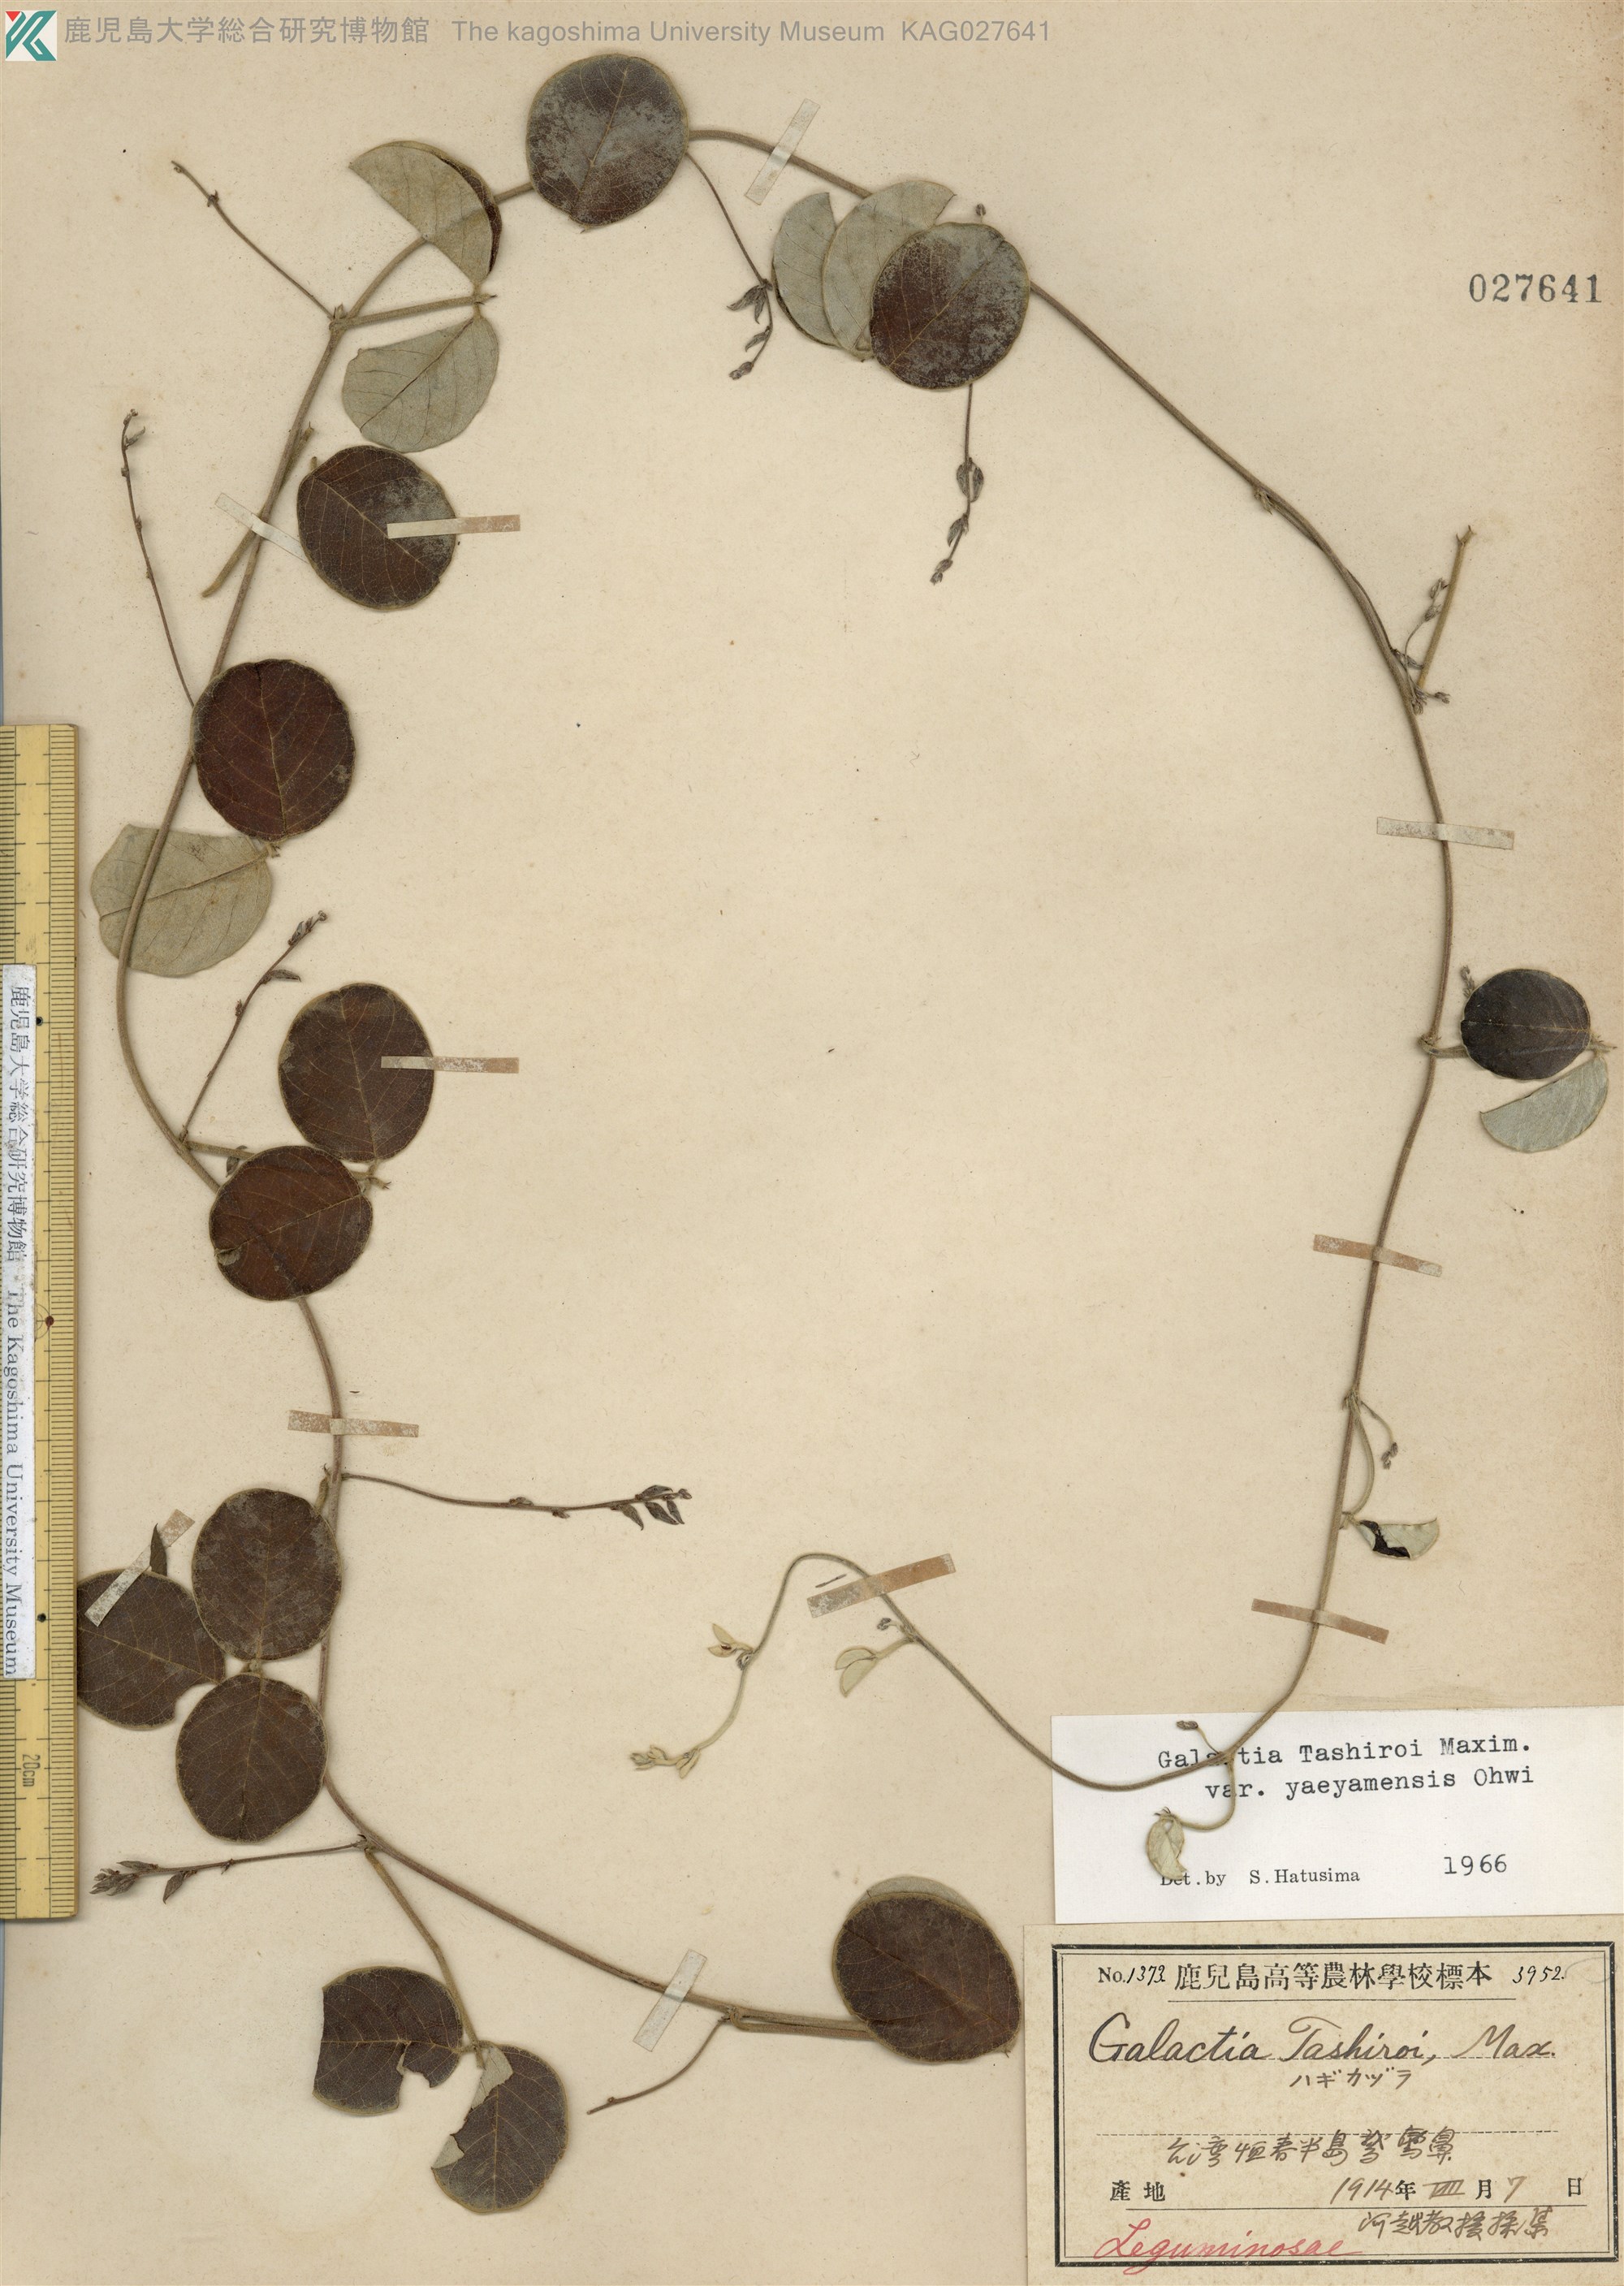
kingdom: Plantae
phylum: Tracheophyta
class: Magnoliopsida
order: Fabales
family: Fabaceae
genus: Galactia
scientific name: Galactia tashiroi
